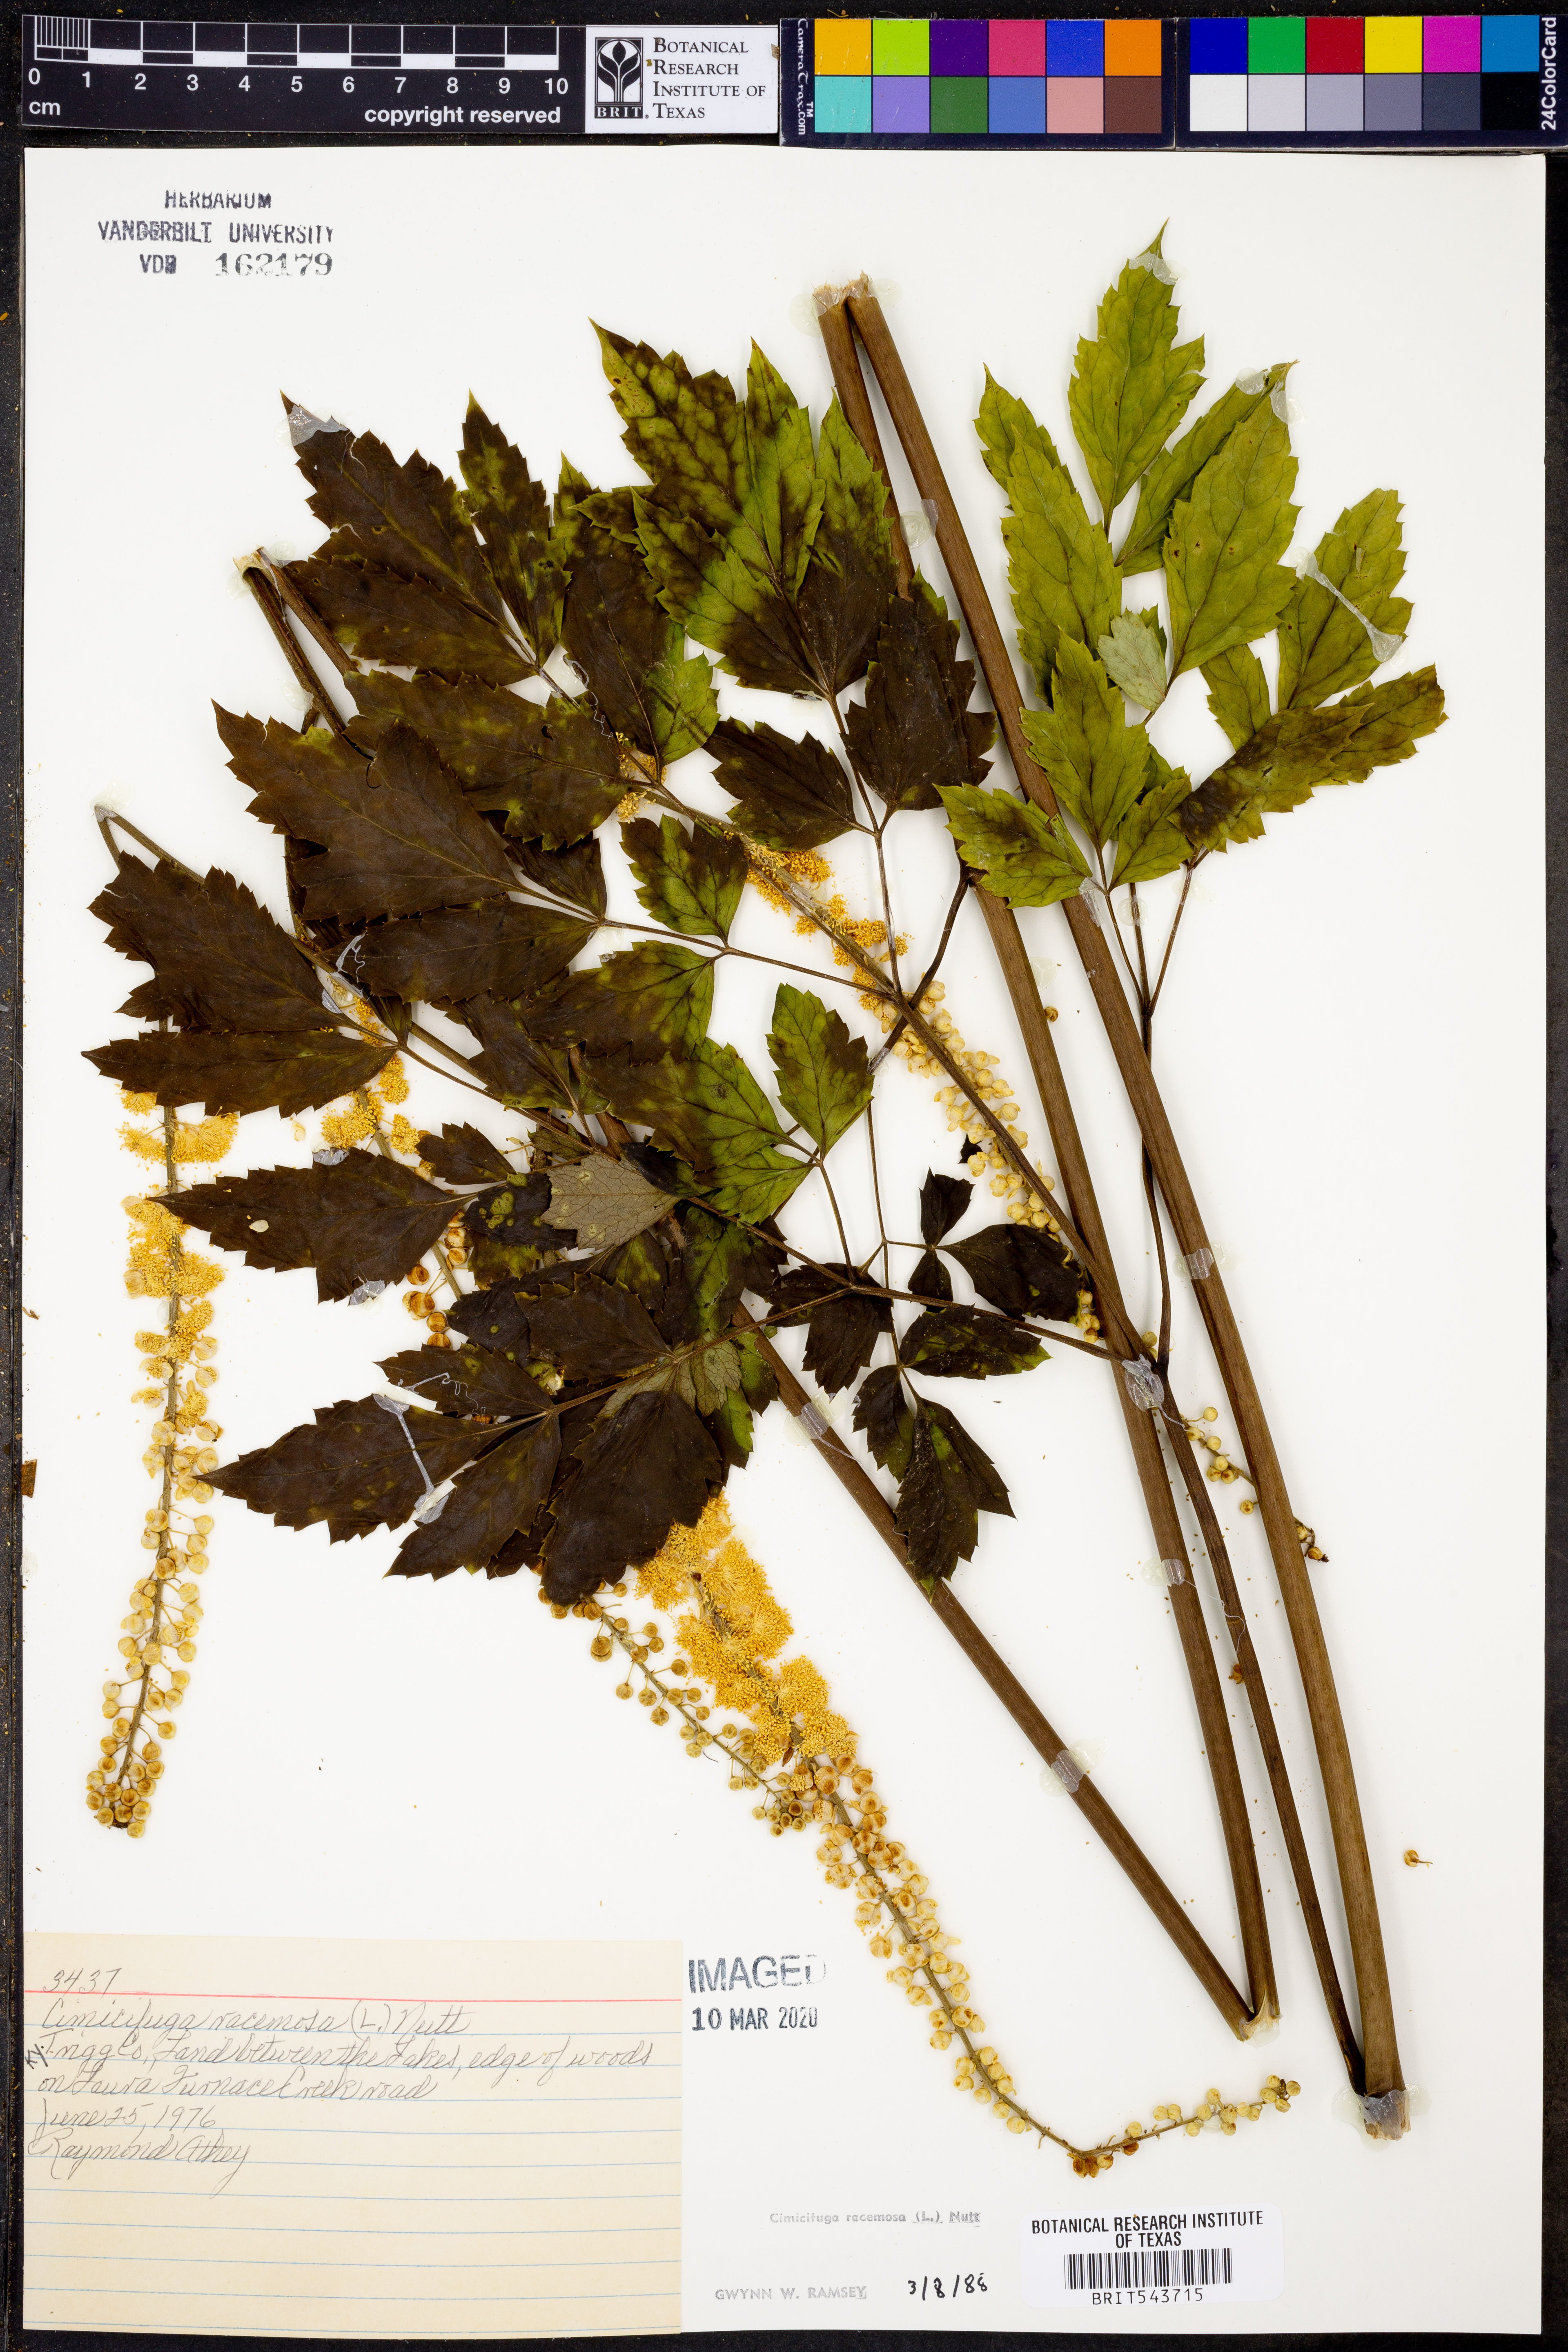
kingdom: Plantae
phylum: Tracheophyta
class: Magnoliopsida
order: Ranunculales
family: Ranunculaceae
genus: Actaea
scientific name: Actaea racemosa
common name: Black cohosh
